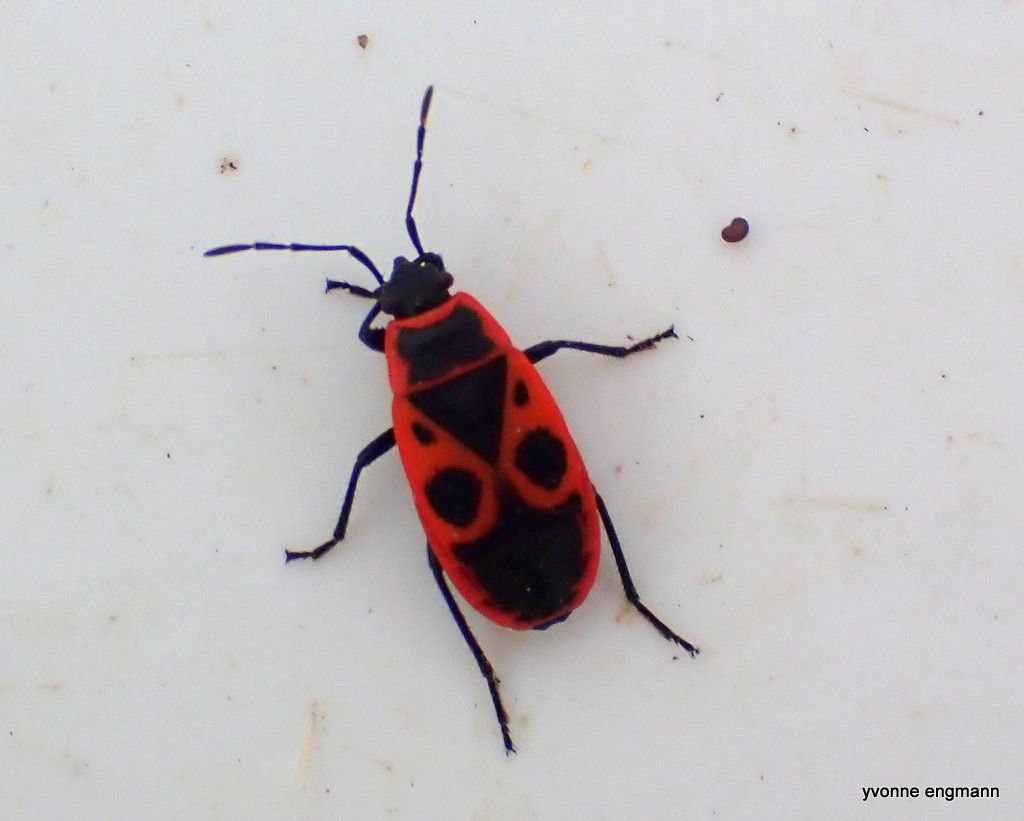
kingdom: Animalia
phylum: Arthropoda
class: Insecta
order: Hemiptera
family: Pyrrhocoridae
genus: Pyrrhocoris
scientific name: Pyrrhocoris apterus
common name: Ildtæge
